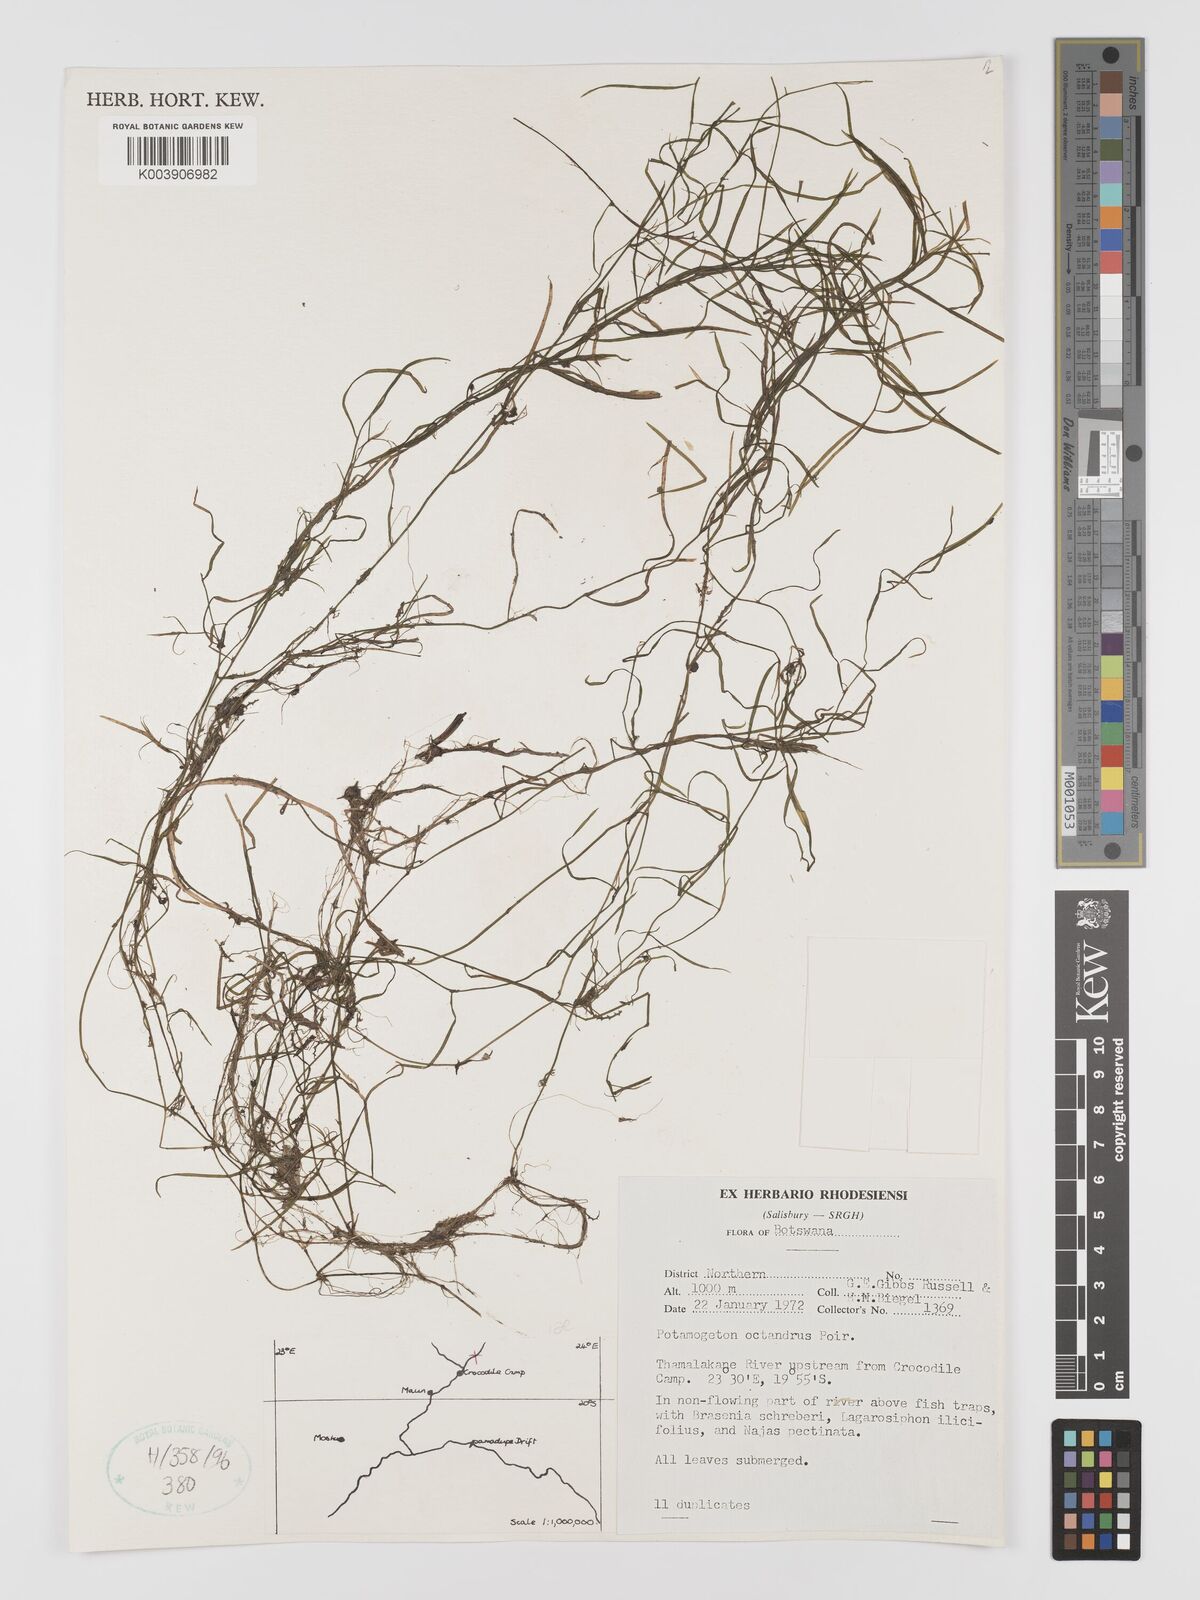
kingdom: Plantae
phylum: Tracheophyta
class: Liliopsida
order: Alismatales
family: Potamogetonaceae
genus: Potamogeton
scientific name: Potamogeton octandrus
